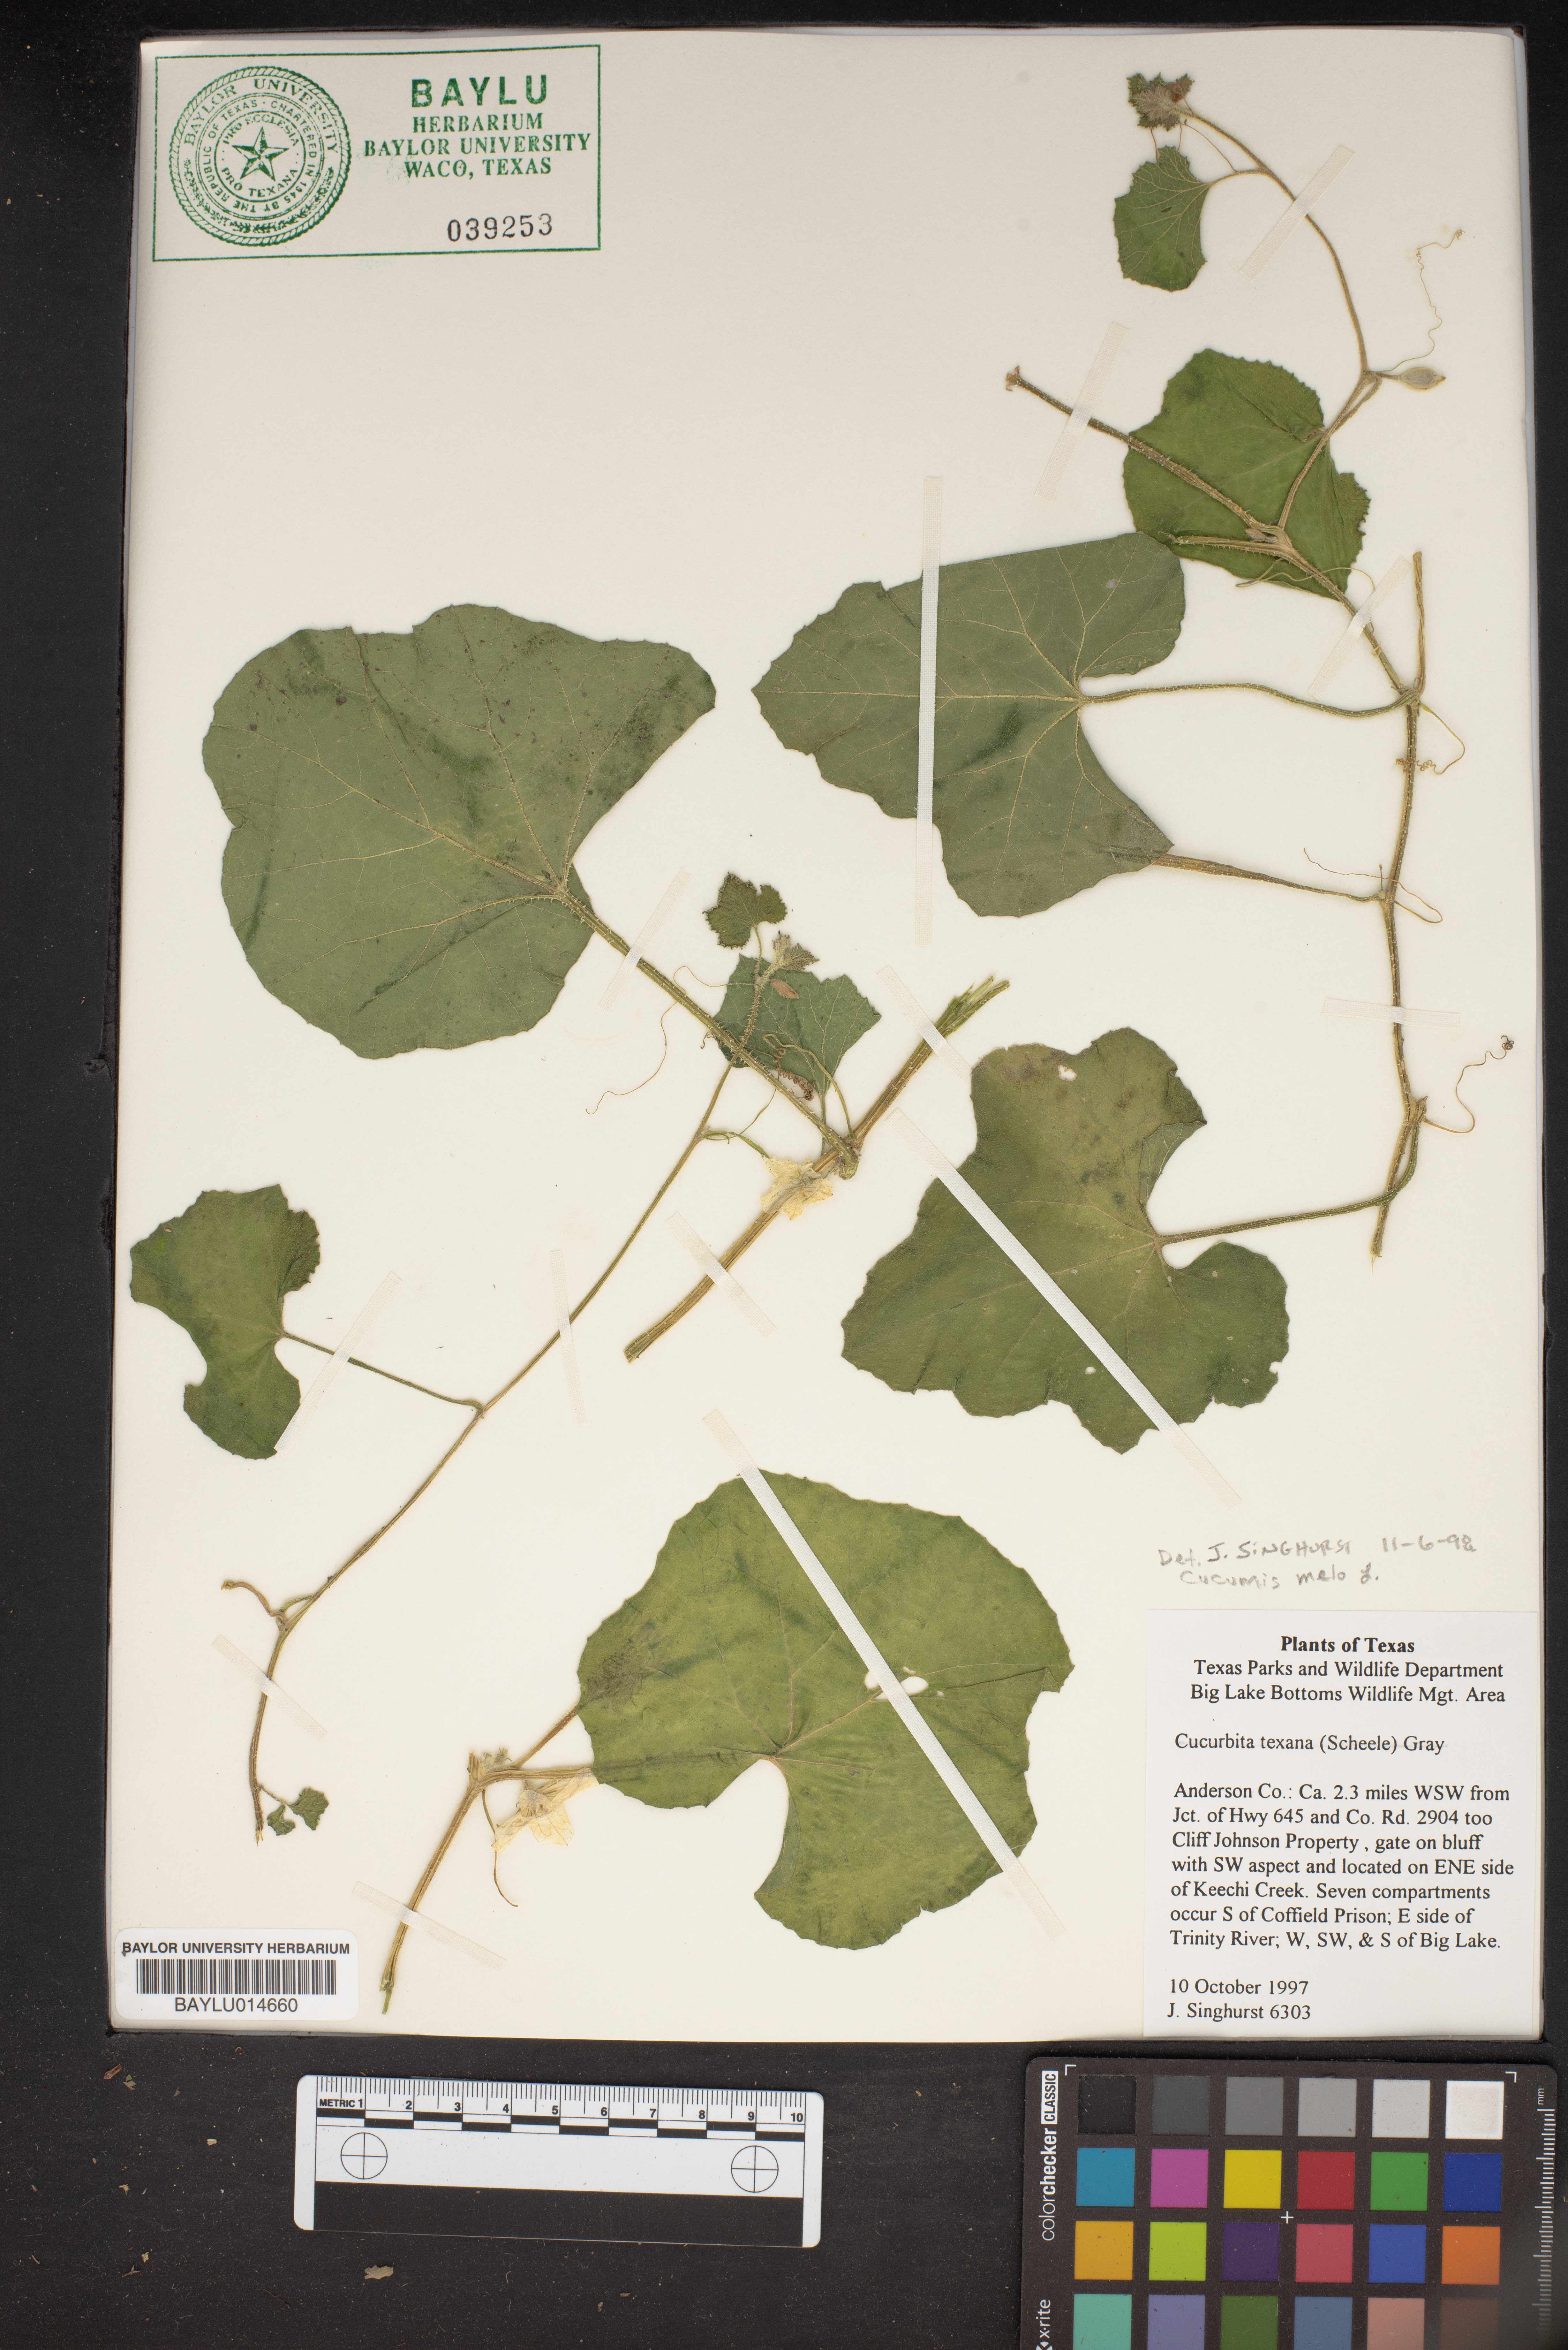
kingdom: Plantae
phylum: Tracheophyta
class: Magnoliopsida
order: Cucurbitales
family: Cucurbitaceae
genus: Cucurbita
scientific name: Cucurbita melopepo
